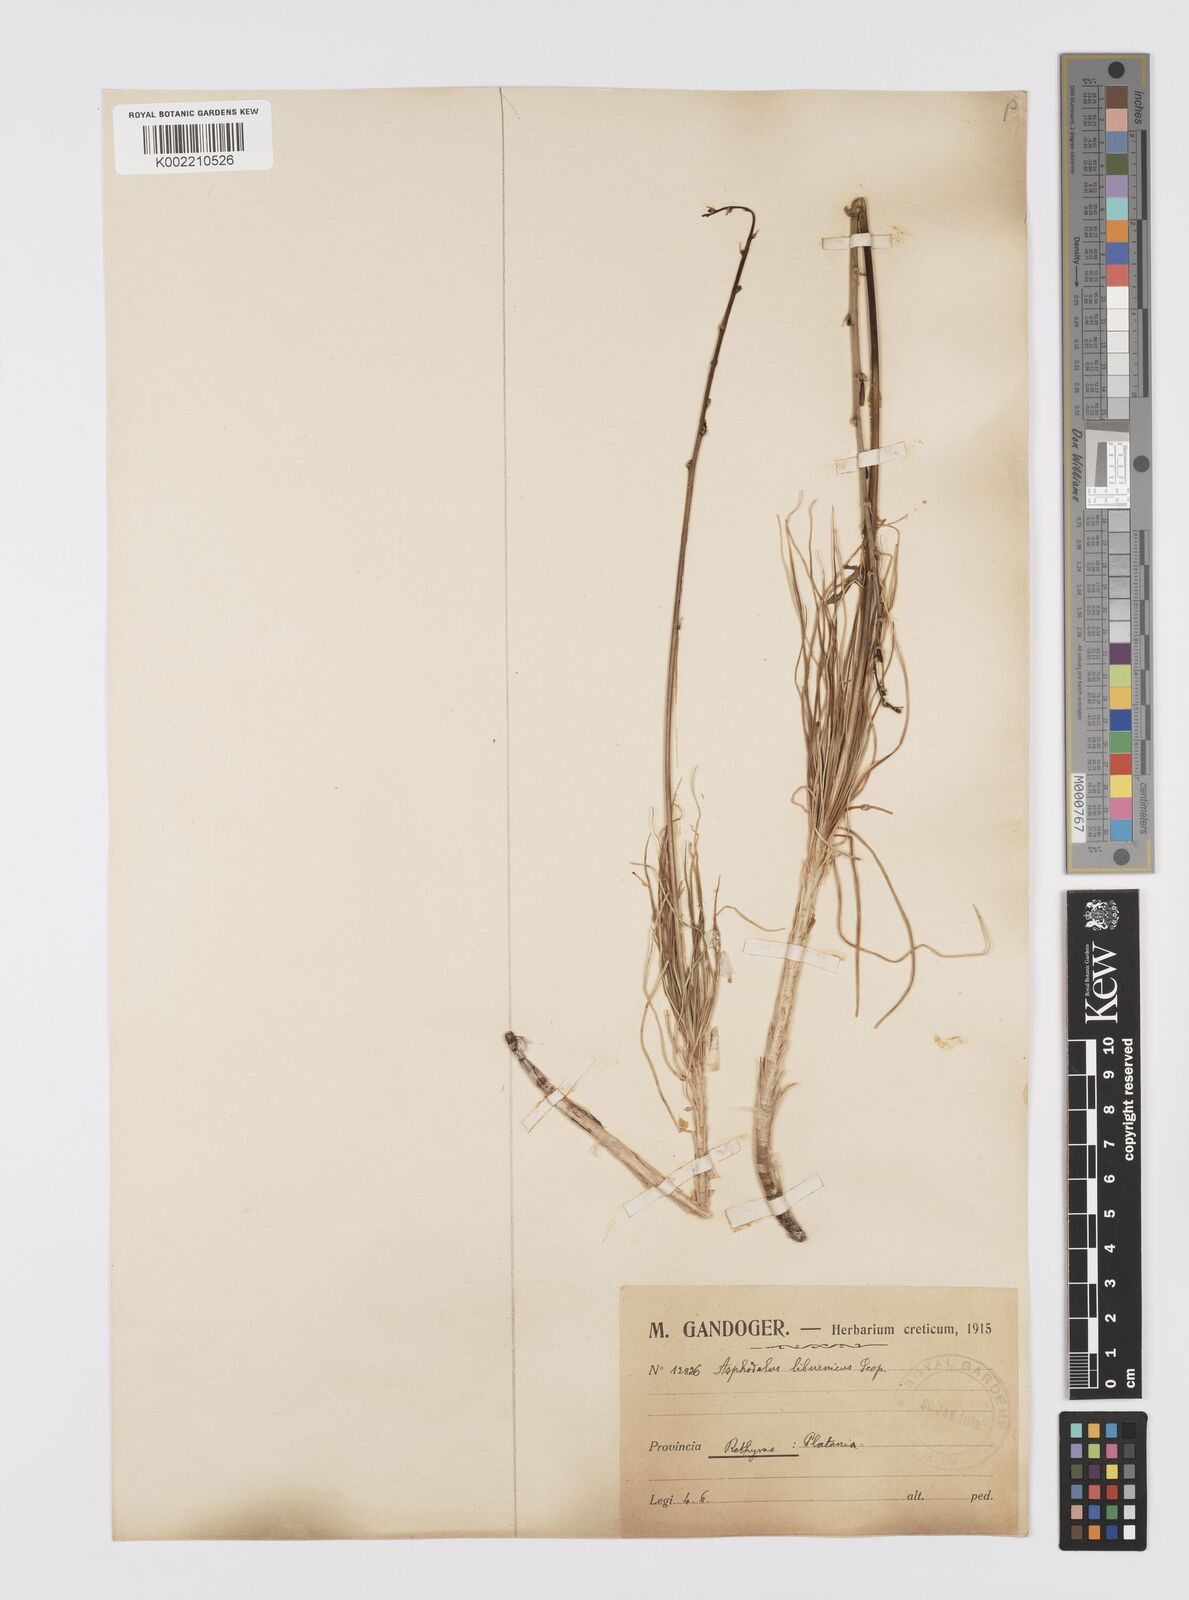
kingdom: Plantae
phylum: Tracheophyta
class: Liliopsida
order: Asparagales
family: Asphodelaceae
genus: Asphodeline
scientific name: Asphodeline liburnica
